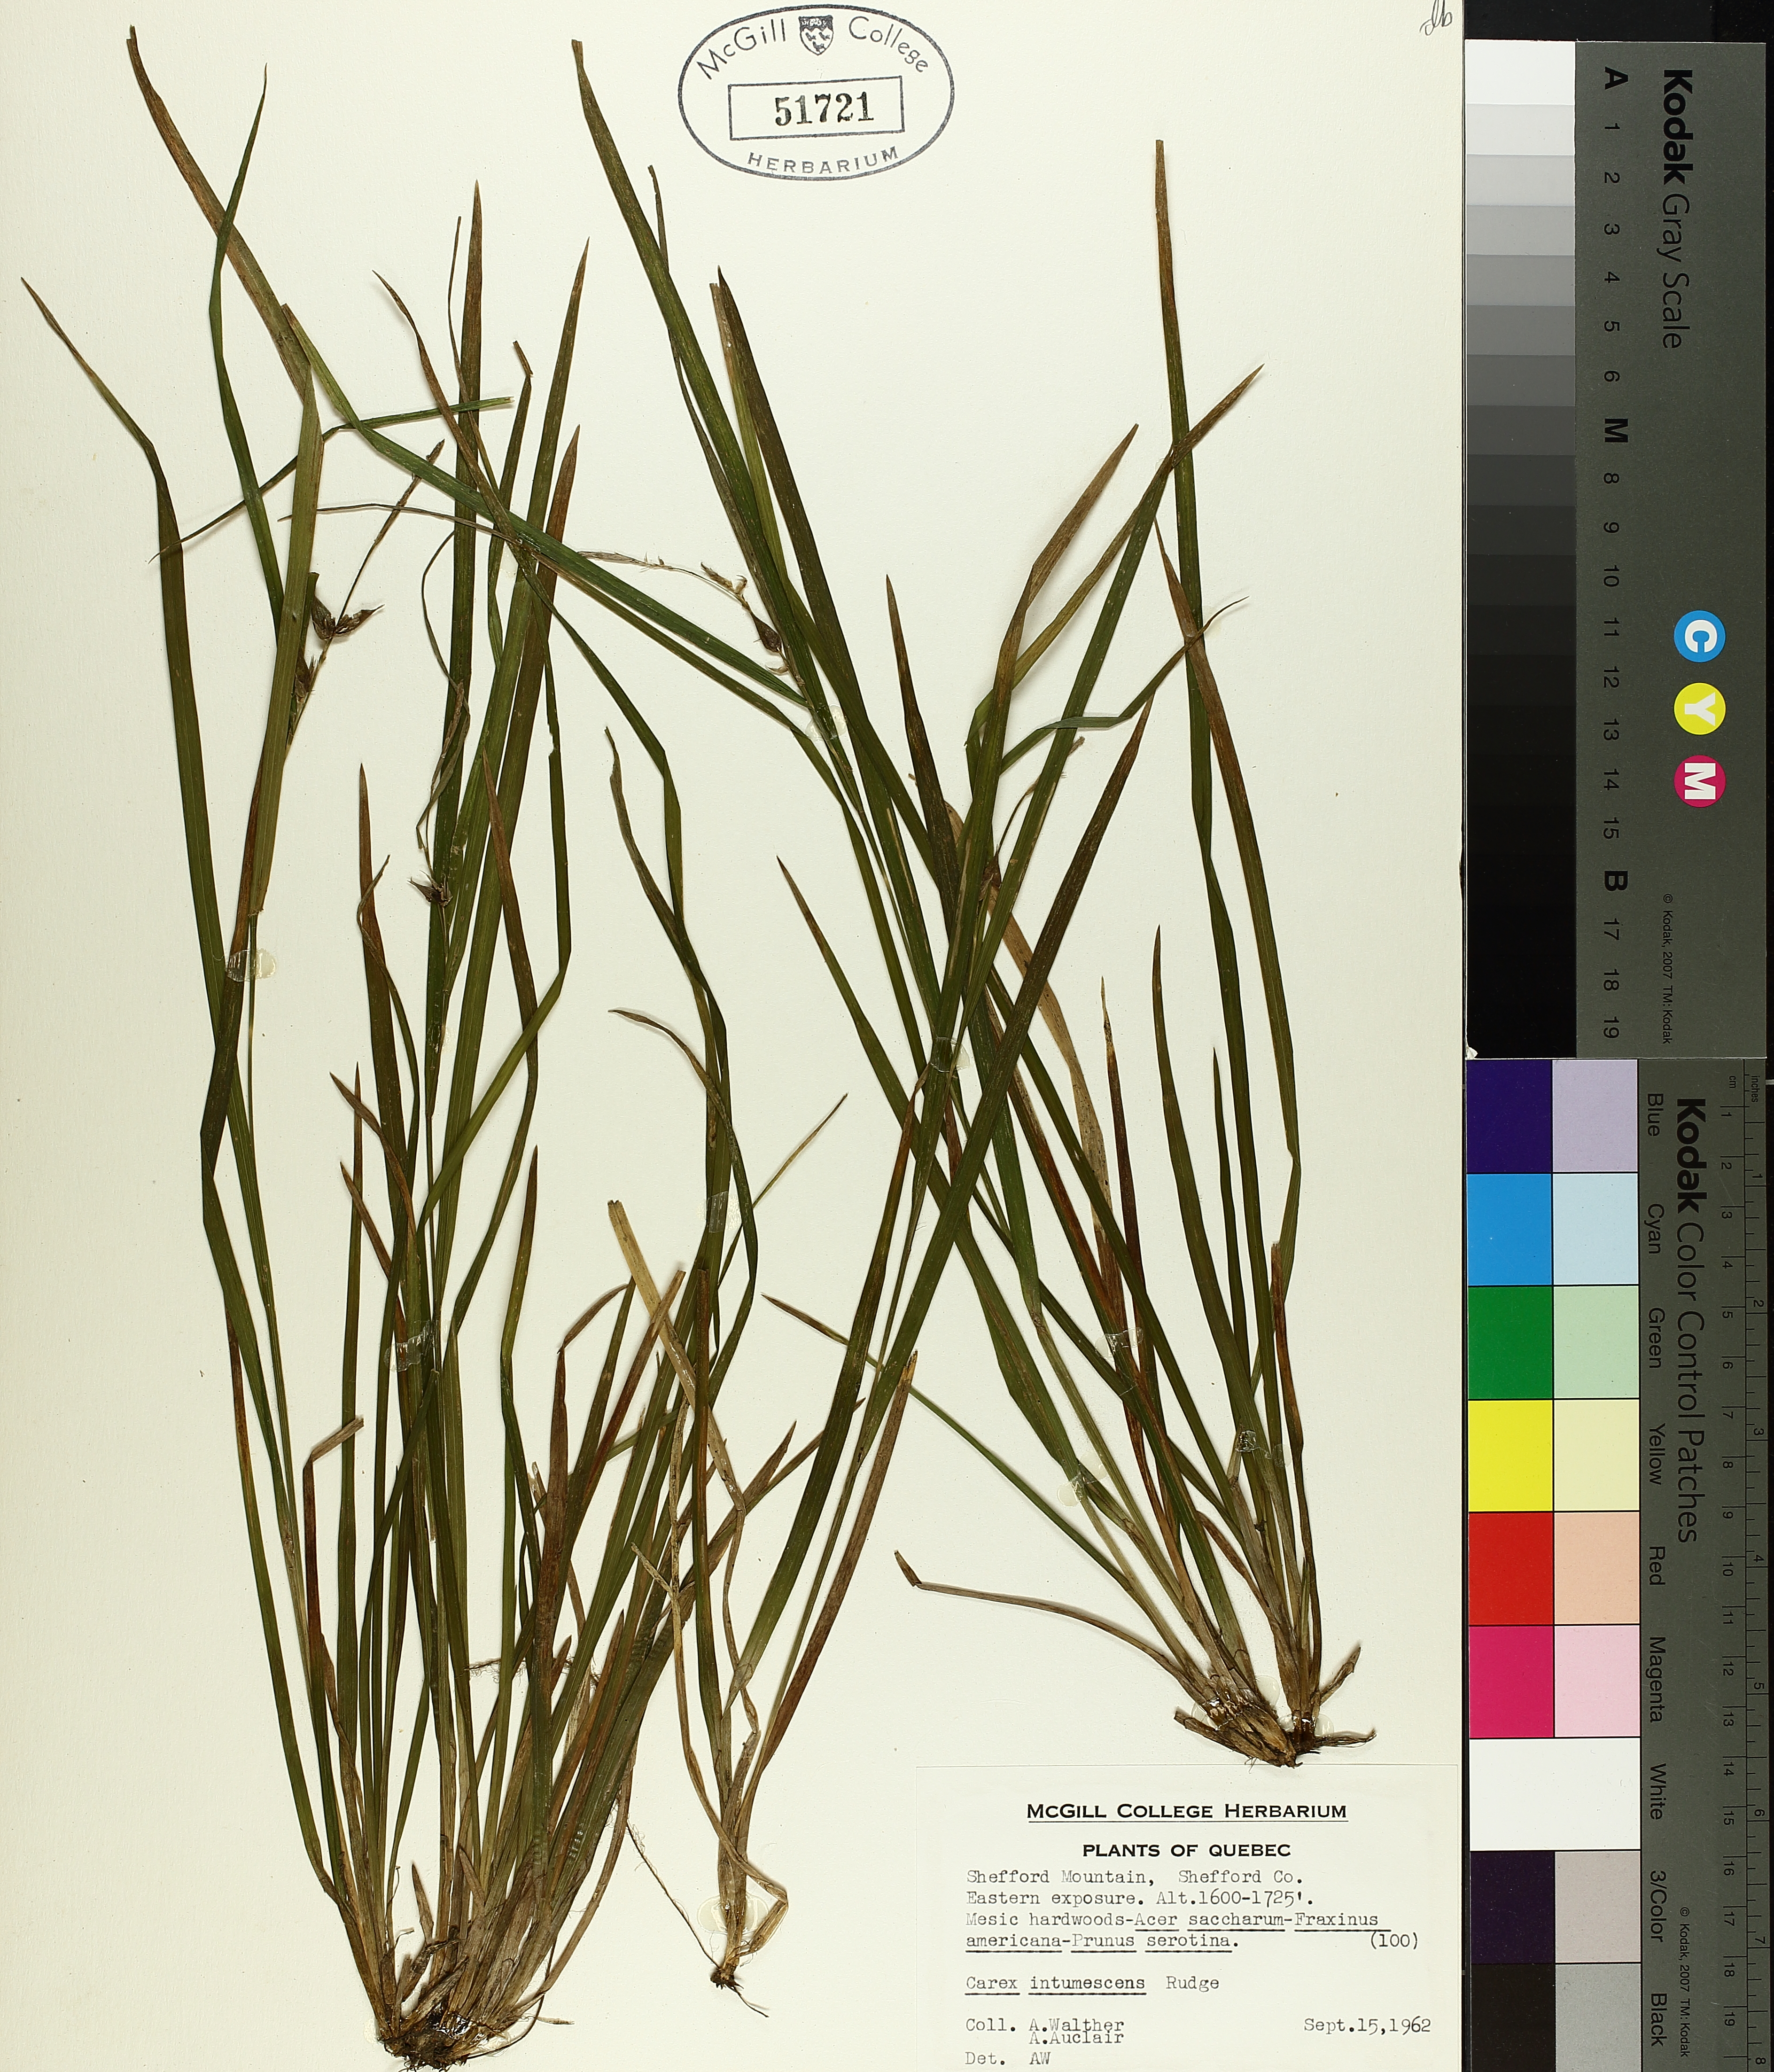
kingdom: Plantae
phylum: Tracheophyta
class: Liliopsida
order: Poales
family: Cyperaceae
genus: Carex
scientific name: Carex intumescens
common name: Greater bladder sedge
